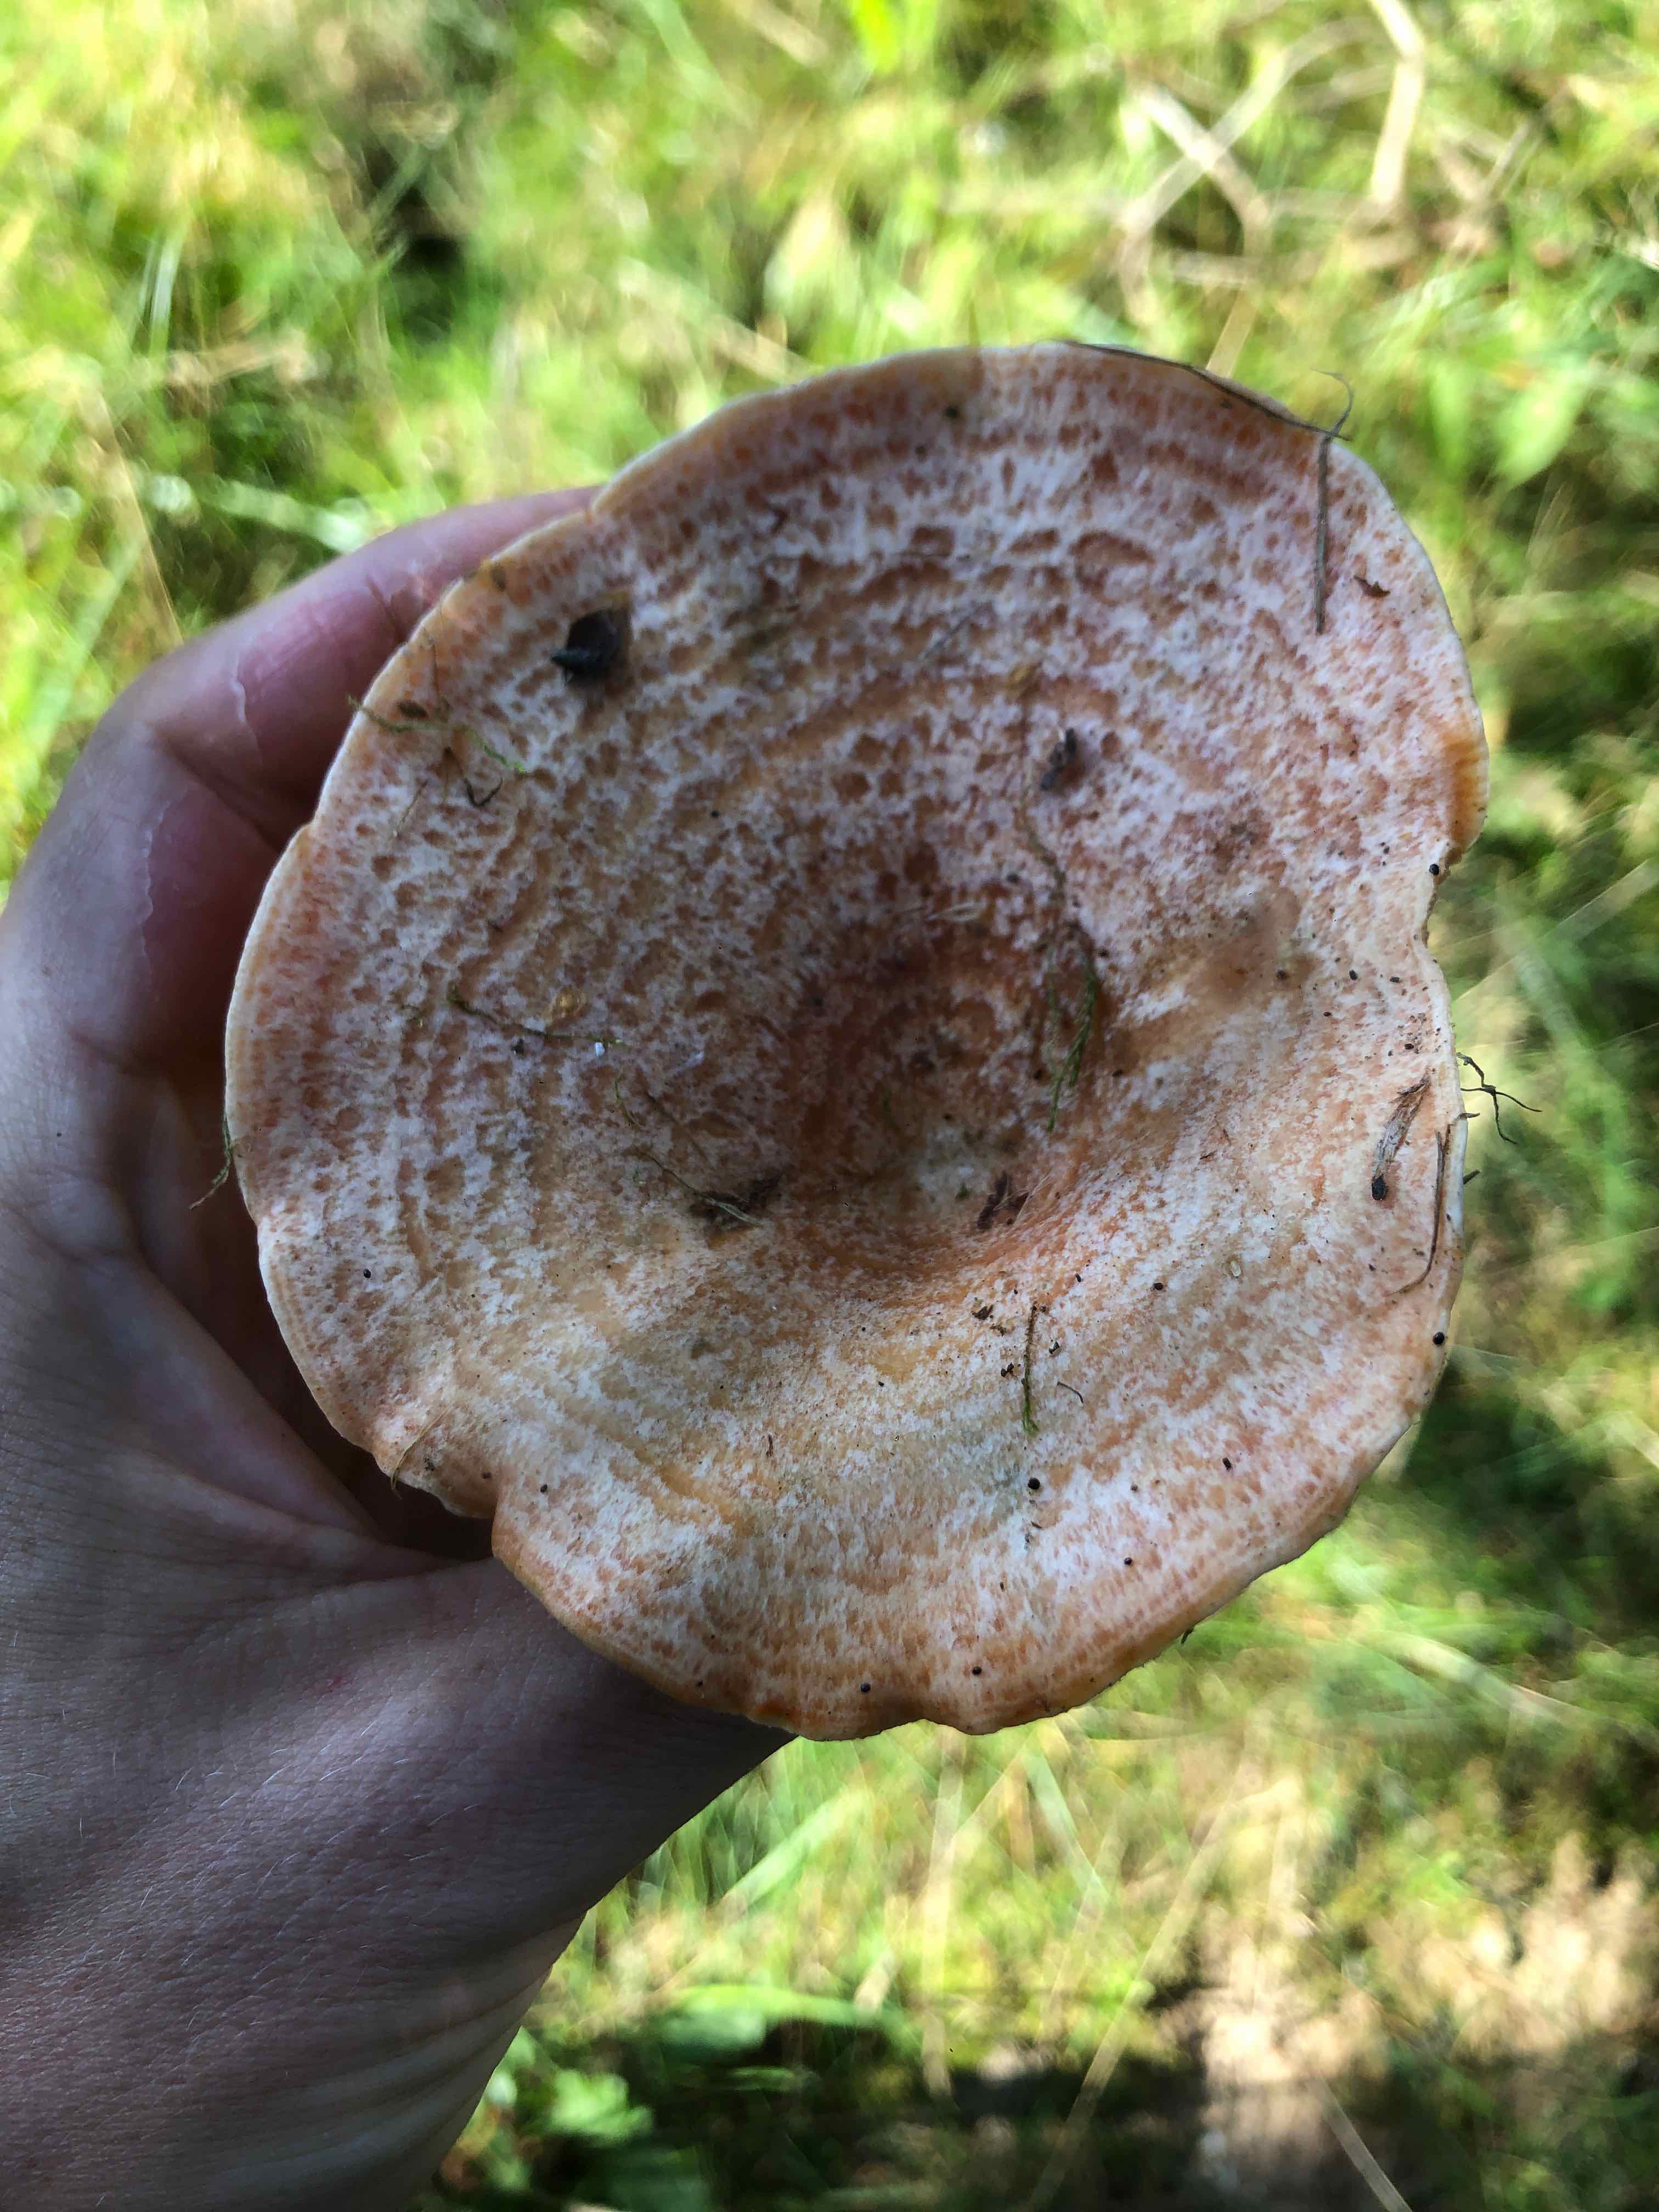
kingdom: Fungi
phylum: Basidiomycota
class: Agaricomycetes
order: Russulales
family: Russulaceae
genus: Lactarius
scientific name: Lactarius deliciosus
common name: velsmagende mælkehat
